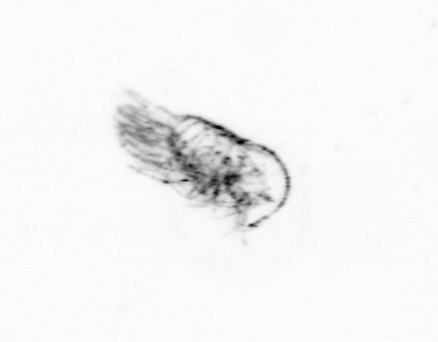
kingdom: Animalia
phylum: Arthropoda
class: Copepoda
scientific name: Copepoda
